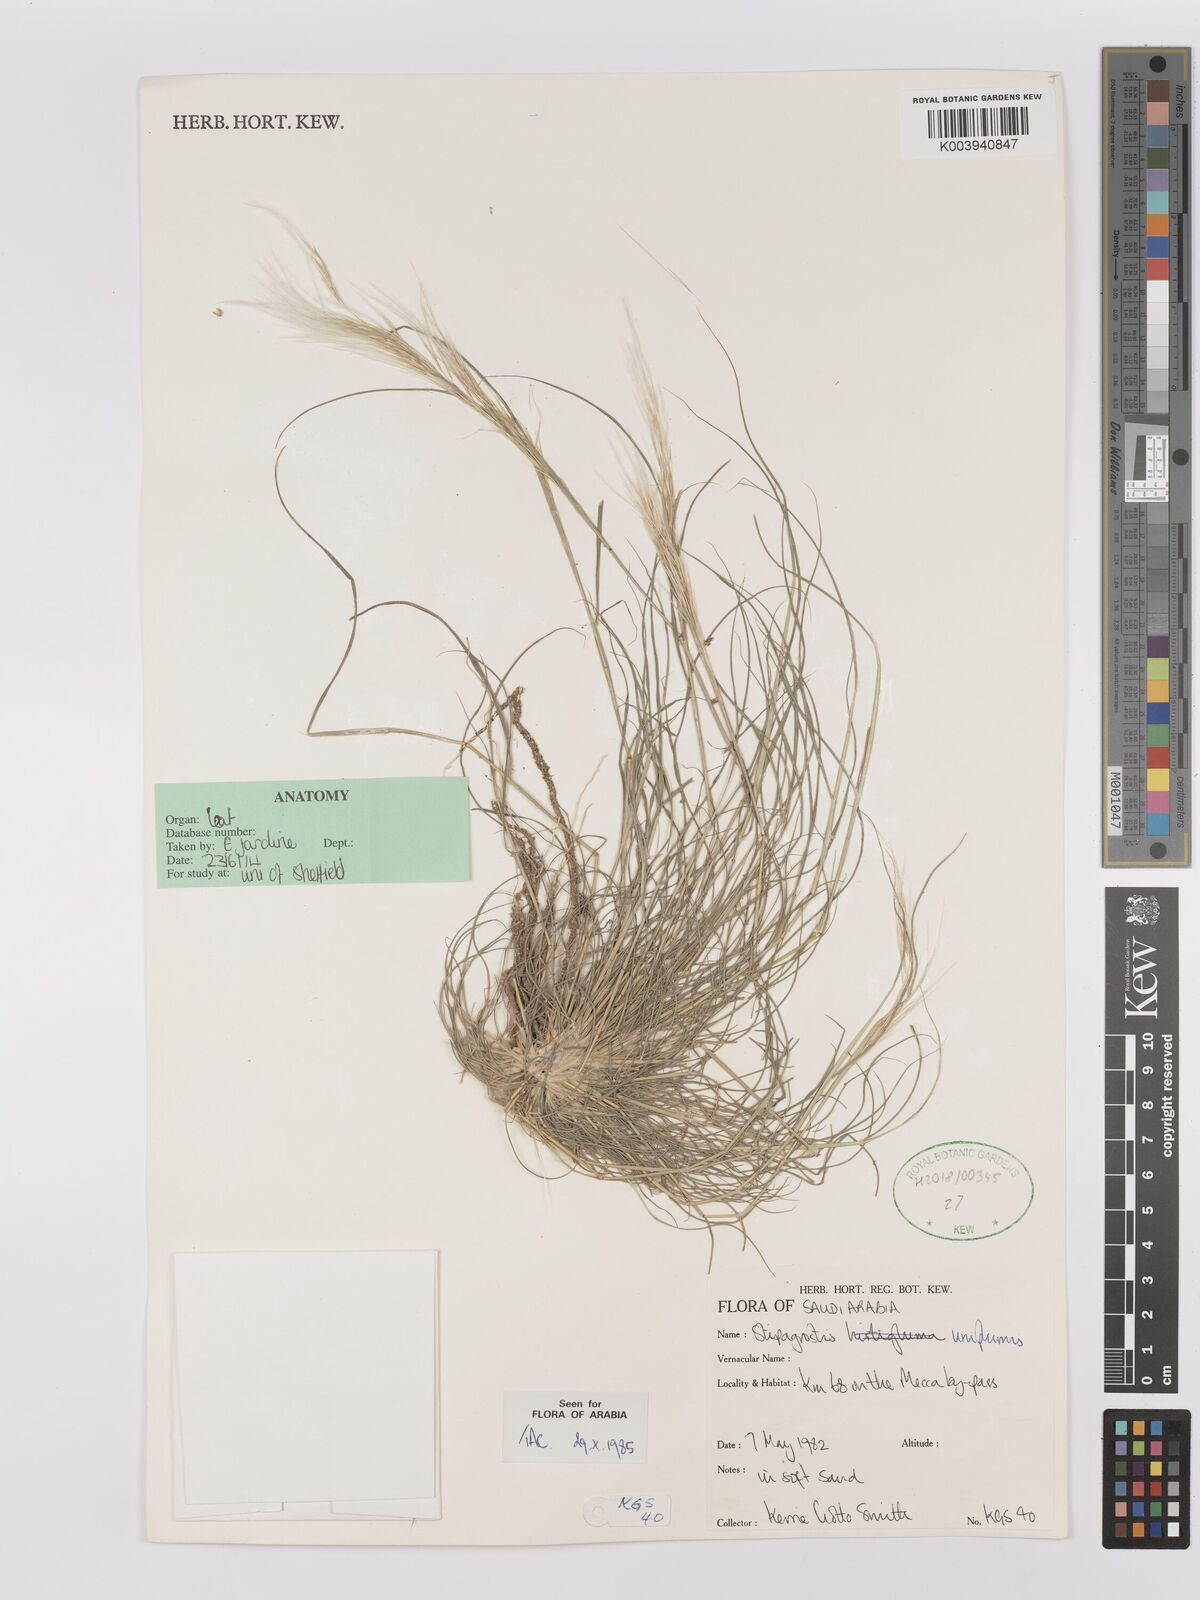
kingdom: Plantae
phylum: Tracheophyta
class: Liliopsida
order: Poales
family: Poaceae
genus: Stipagrostis
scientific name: Stipagrostis uniplumis
